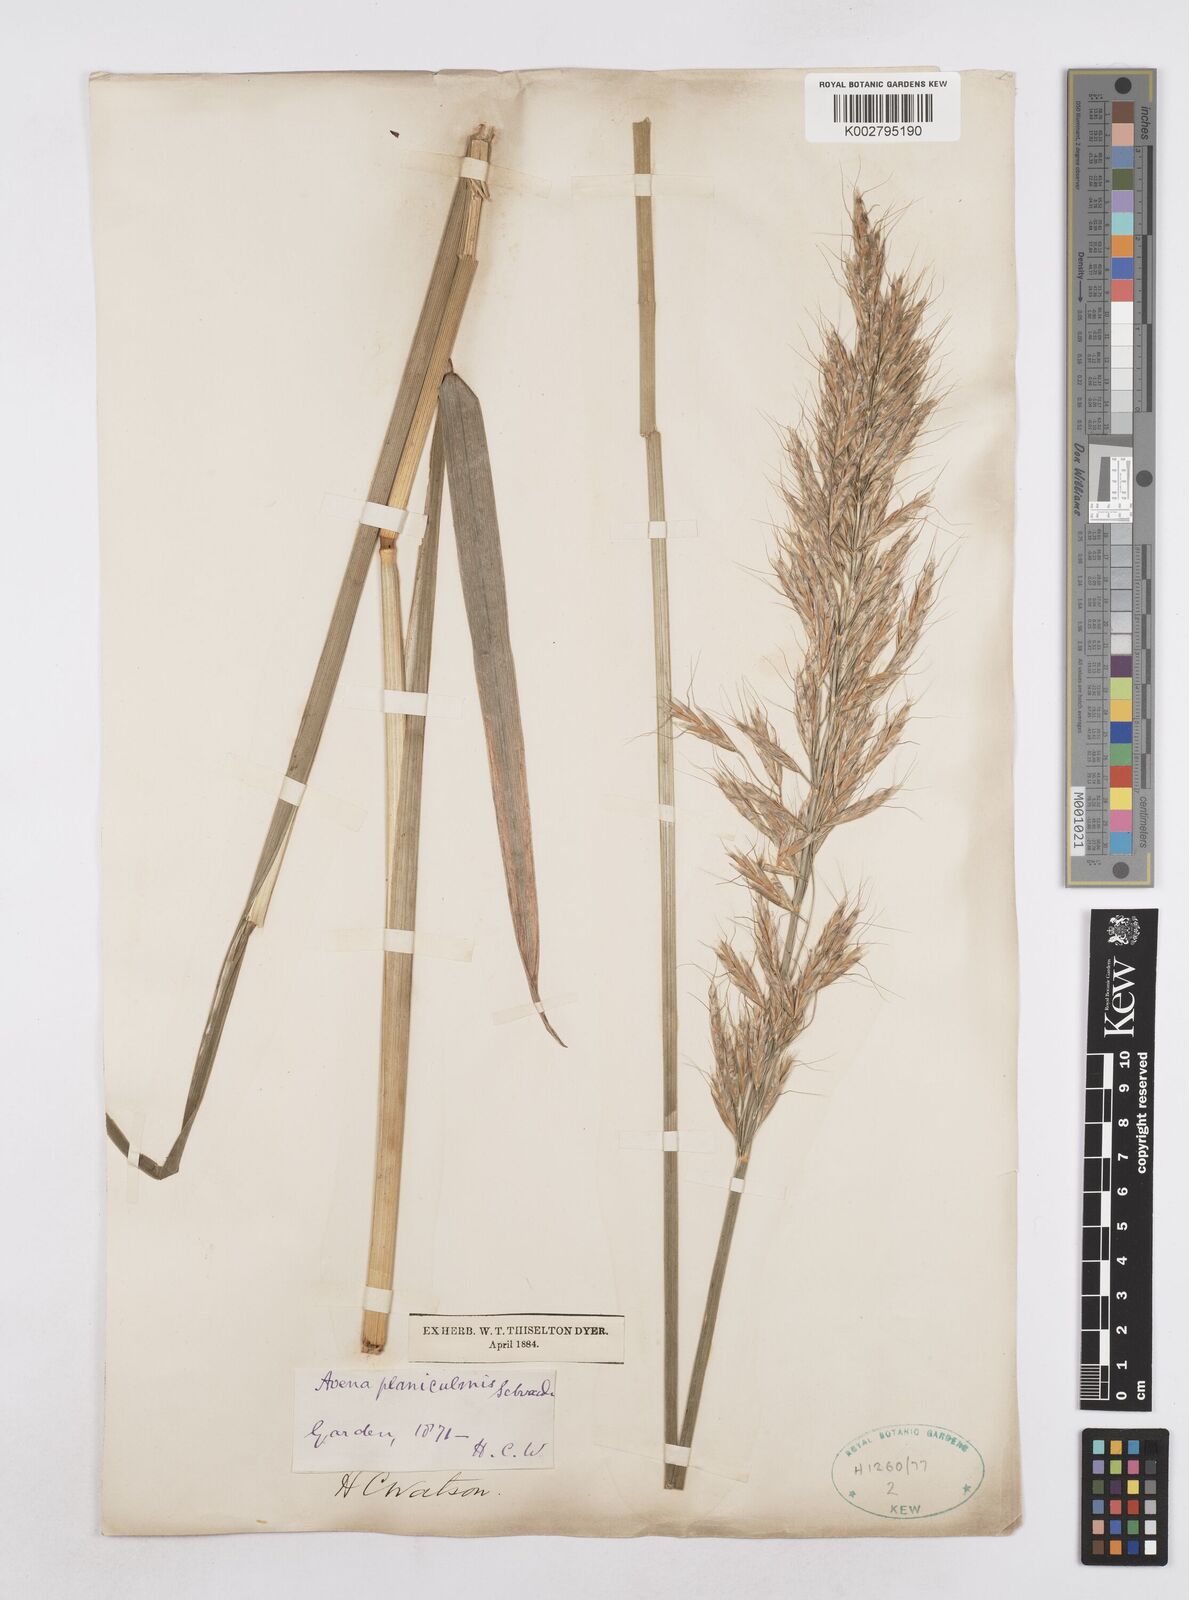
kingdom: Plantae
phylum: Tracheophyta
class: Liliopsida
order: Poales
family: Poaceae
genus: Helictochloa
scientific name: Helictochloa planiculmis
